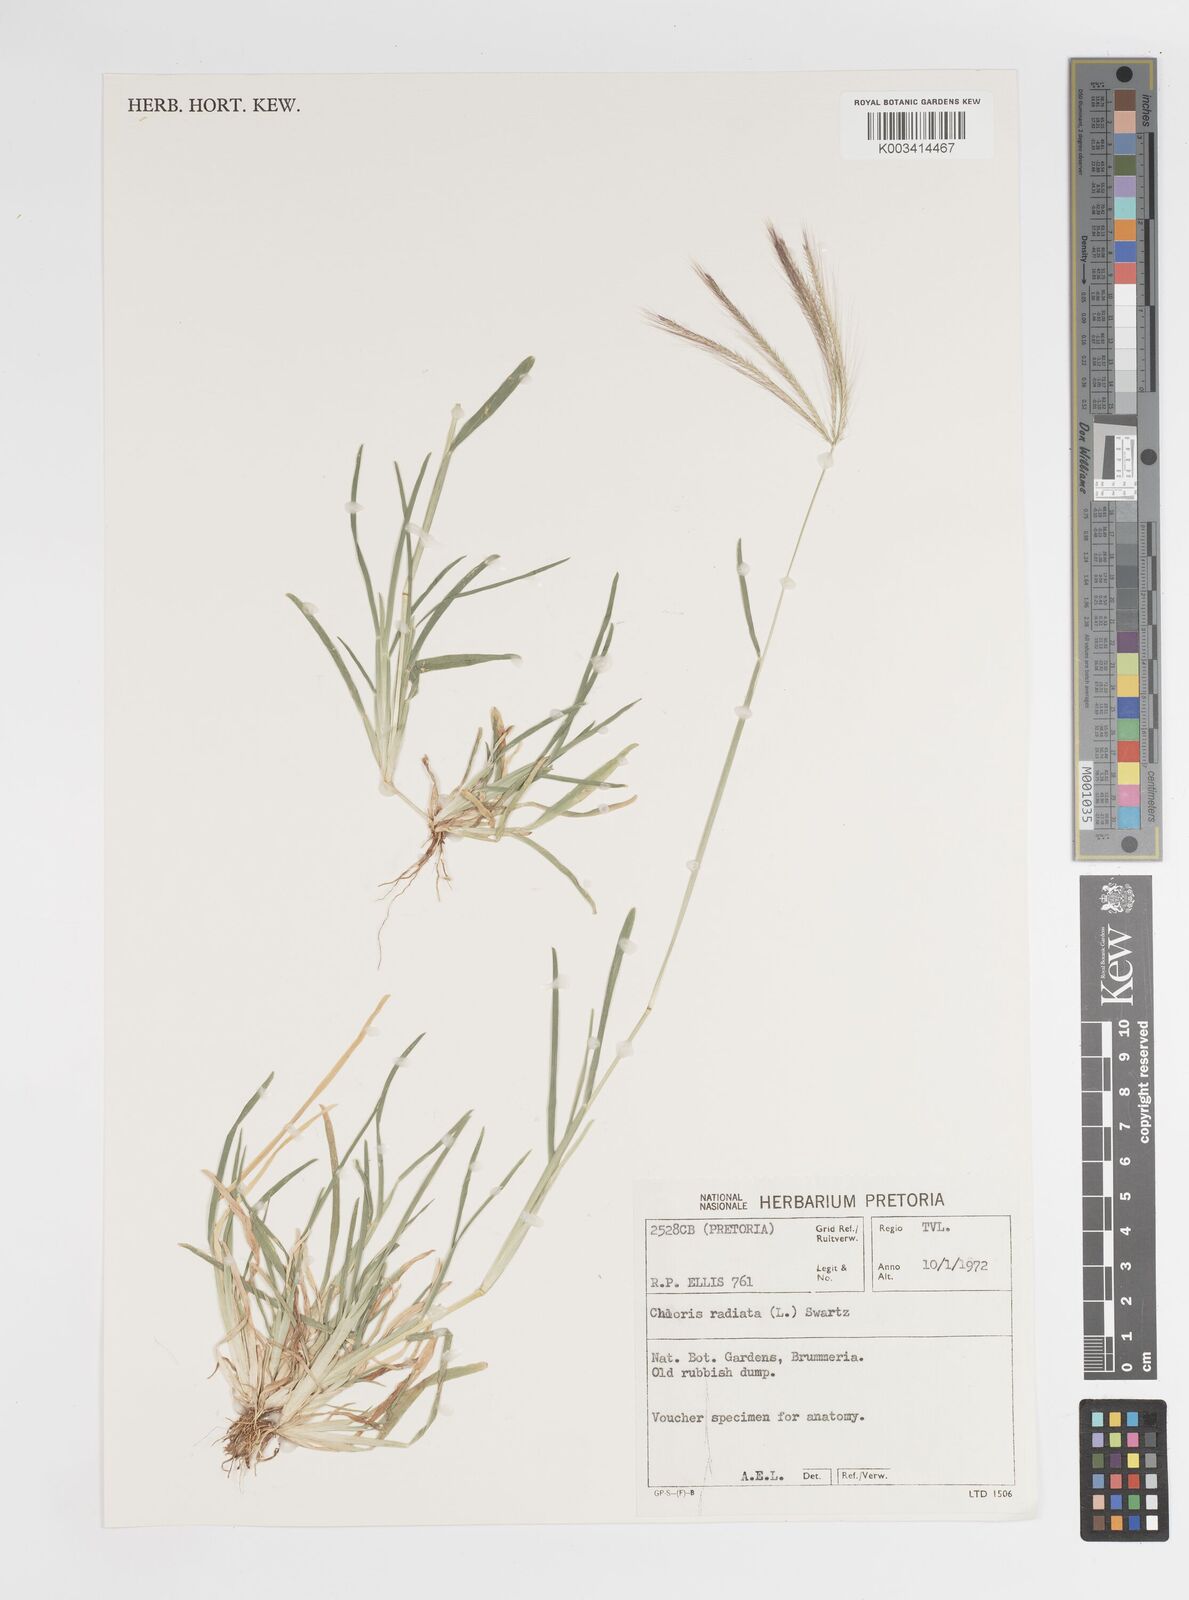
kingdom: Plantae
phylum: Tracheophyta
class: Liliopsida
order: Poales
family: Poaceae
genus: Chloris
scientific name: Chloris radiata
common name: Radiate fingergrass
